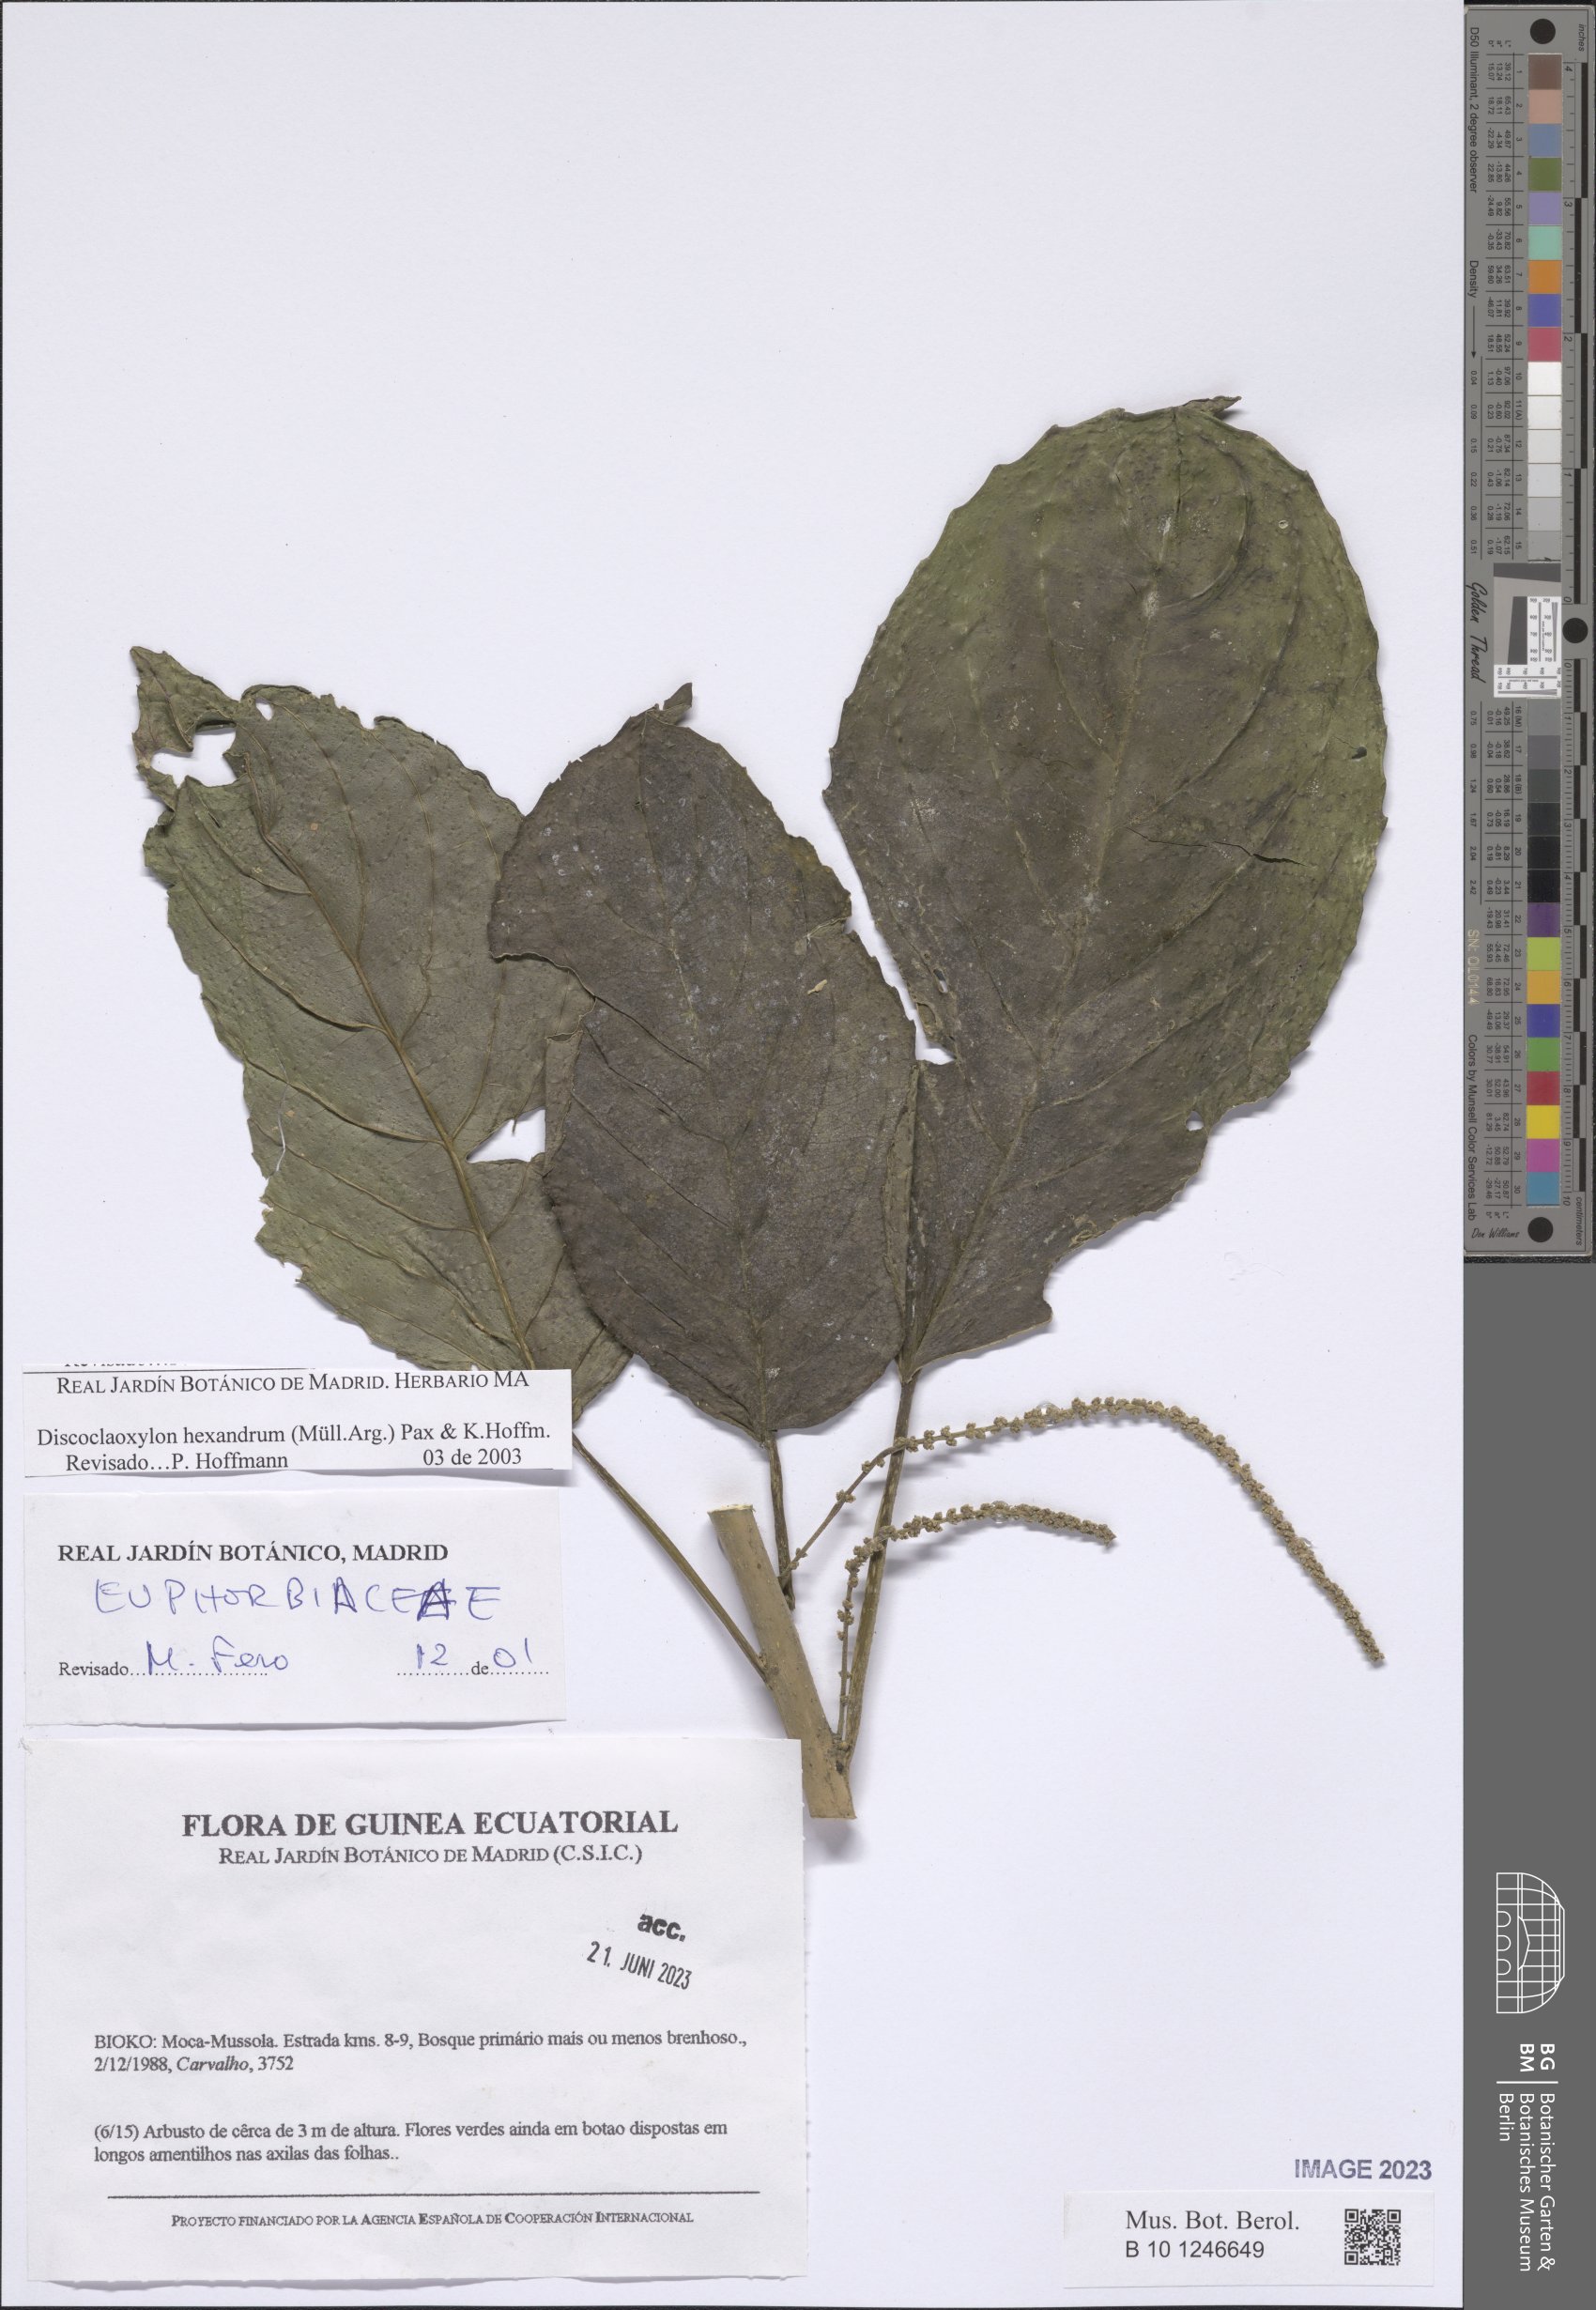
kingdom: Plantae
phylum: Tracheophyta
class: Magnoliopsida
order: Malpighiales
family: Euphorbiaceae
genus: Discoclaoxylon
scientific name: Discoclaoxylon hexandrum
